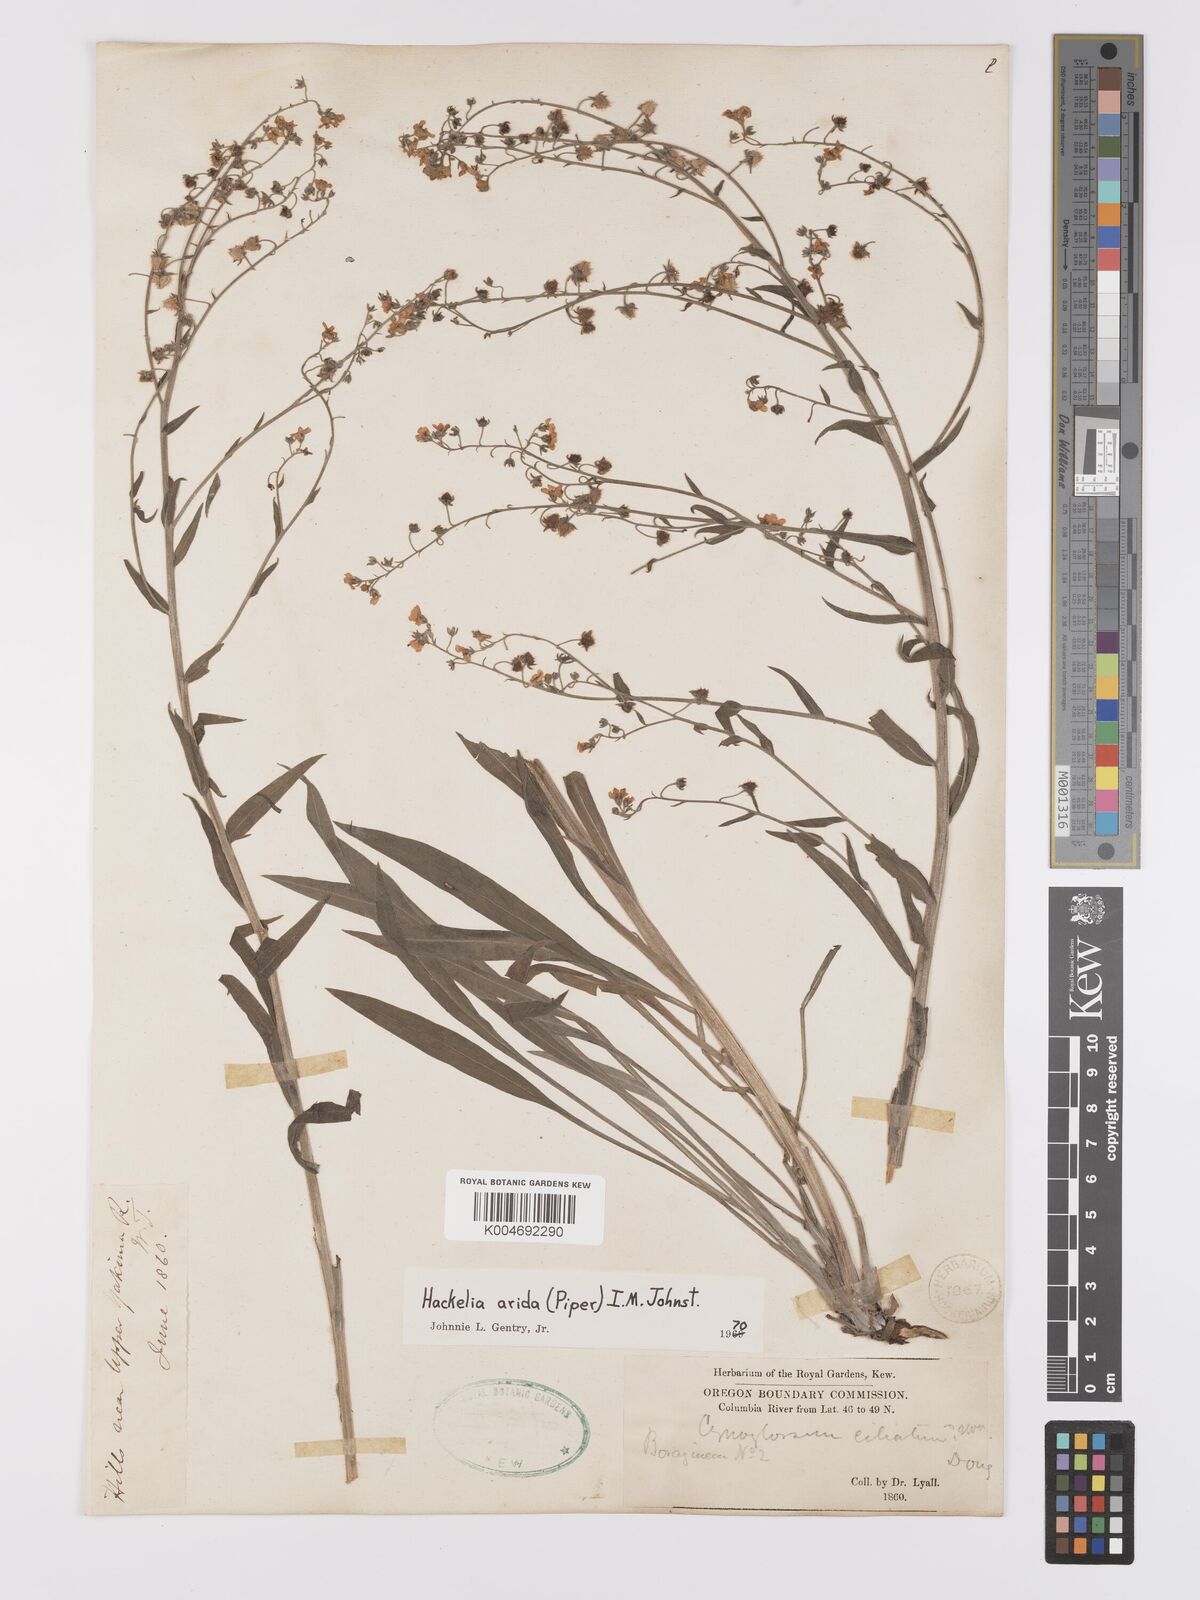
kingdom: Plantae
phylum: Tracheophyta
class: Magnoliopsida
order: Boraginales
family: Boraginaceae
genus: Hackelia
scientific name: Hackelia diffusa
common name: Spreading hackelia
